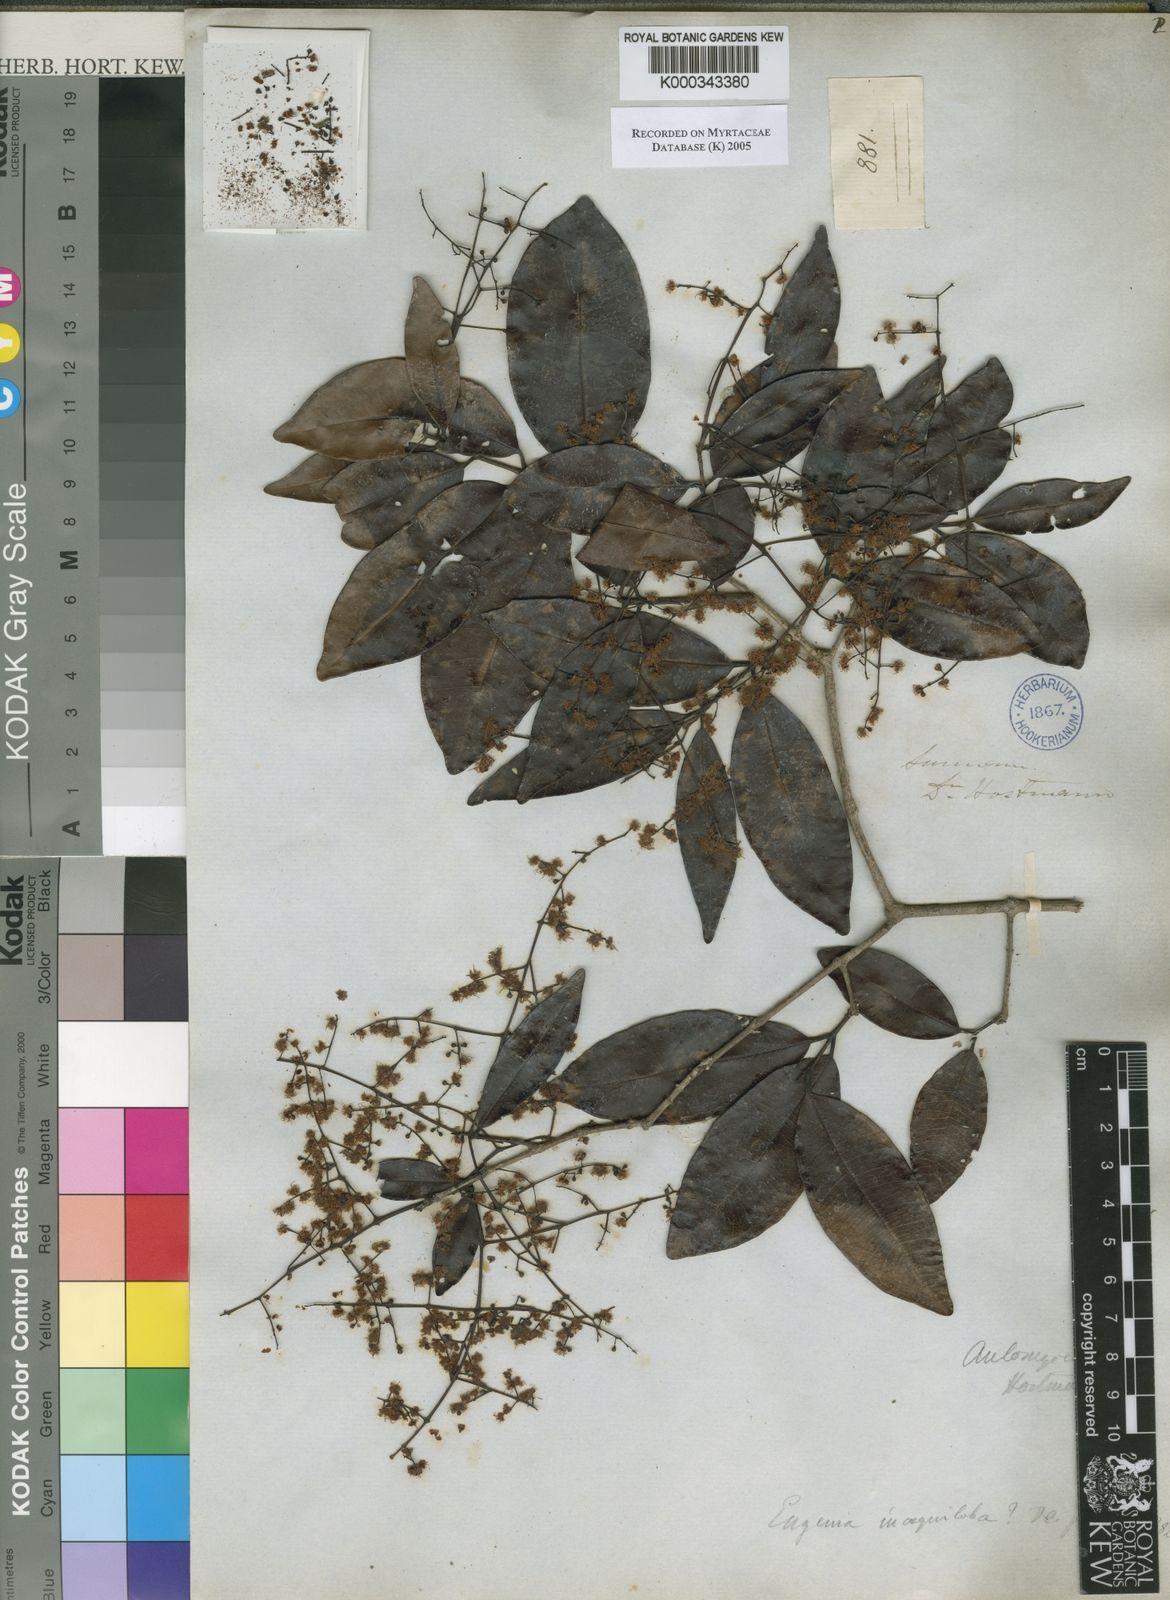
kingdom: Plantae
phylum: Tracheophyta
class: Magnoliopsida
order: Myrtales
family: Myrtaceae
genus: Myrcia
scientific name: Myrcia amazonica
